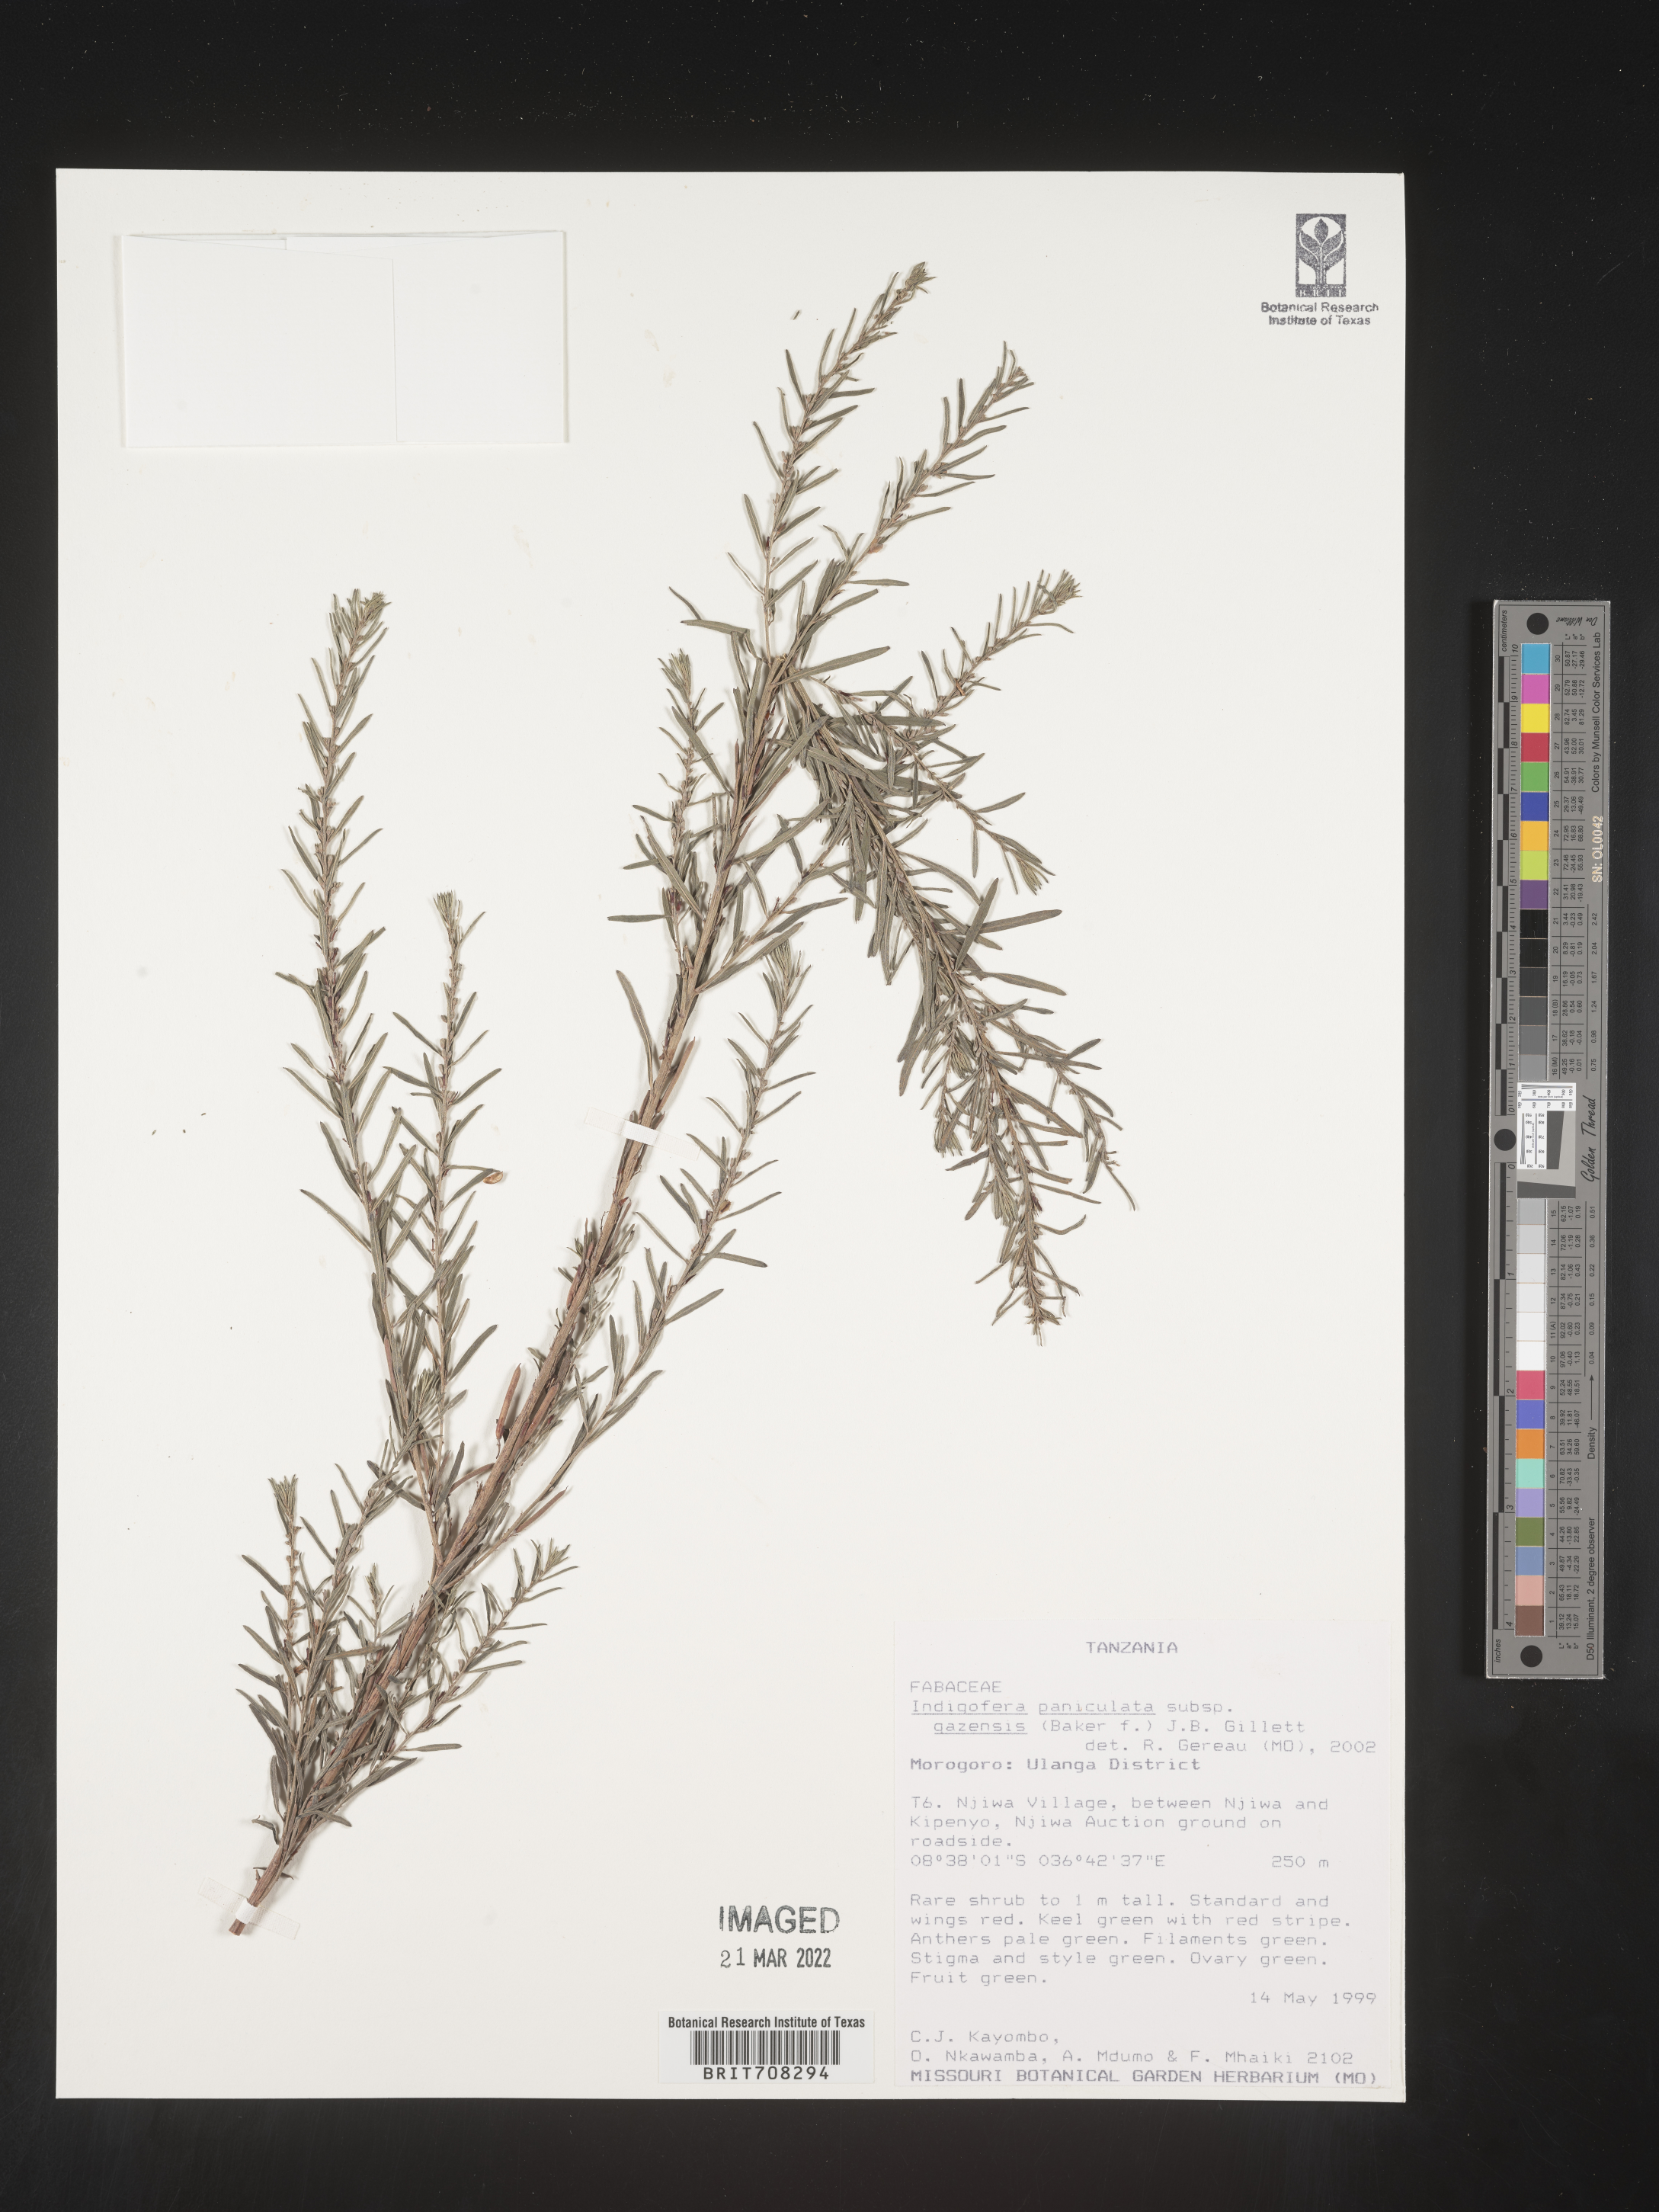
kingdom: Plantae
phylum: Tracheophyta
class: Magnoliopsida
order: Fabales
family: Fabaceae
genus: Indigofera
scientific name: Indigofera
